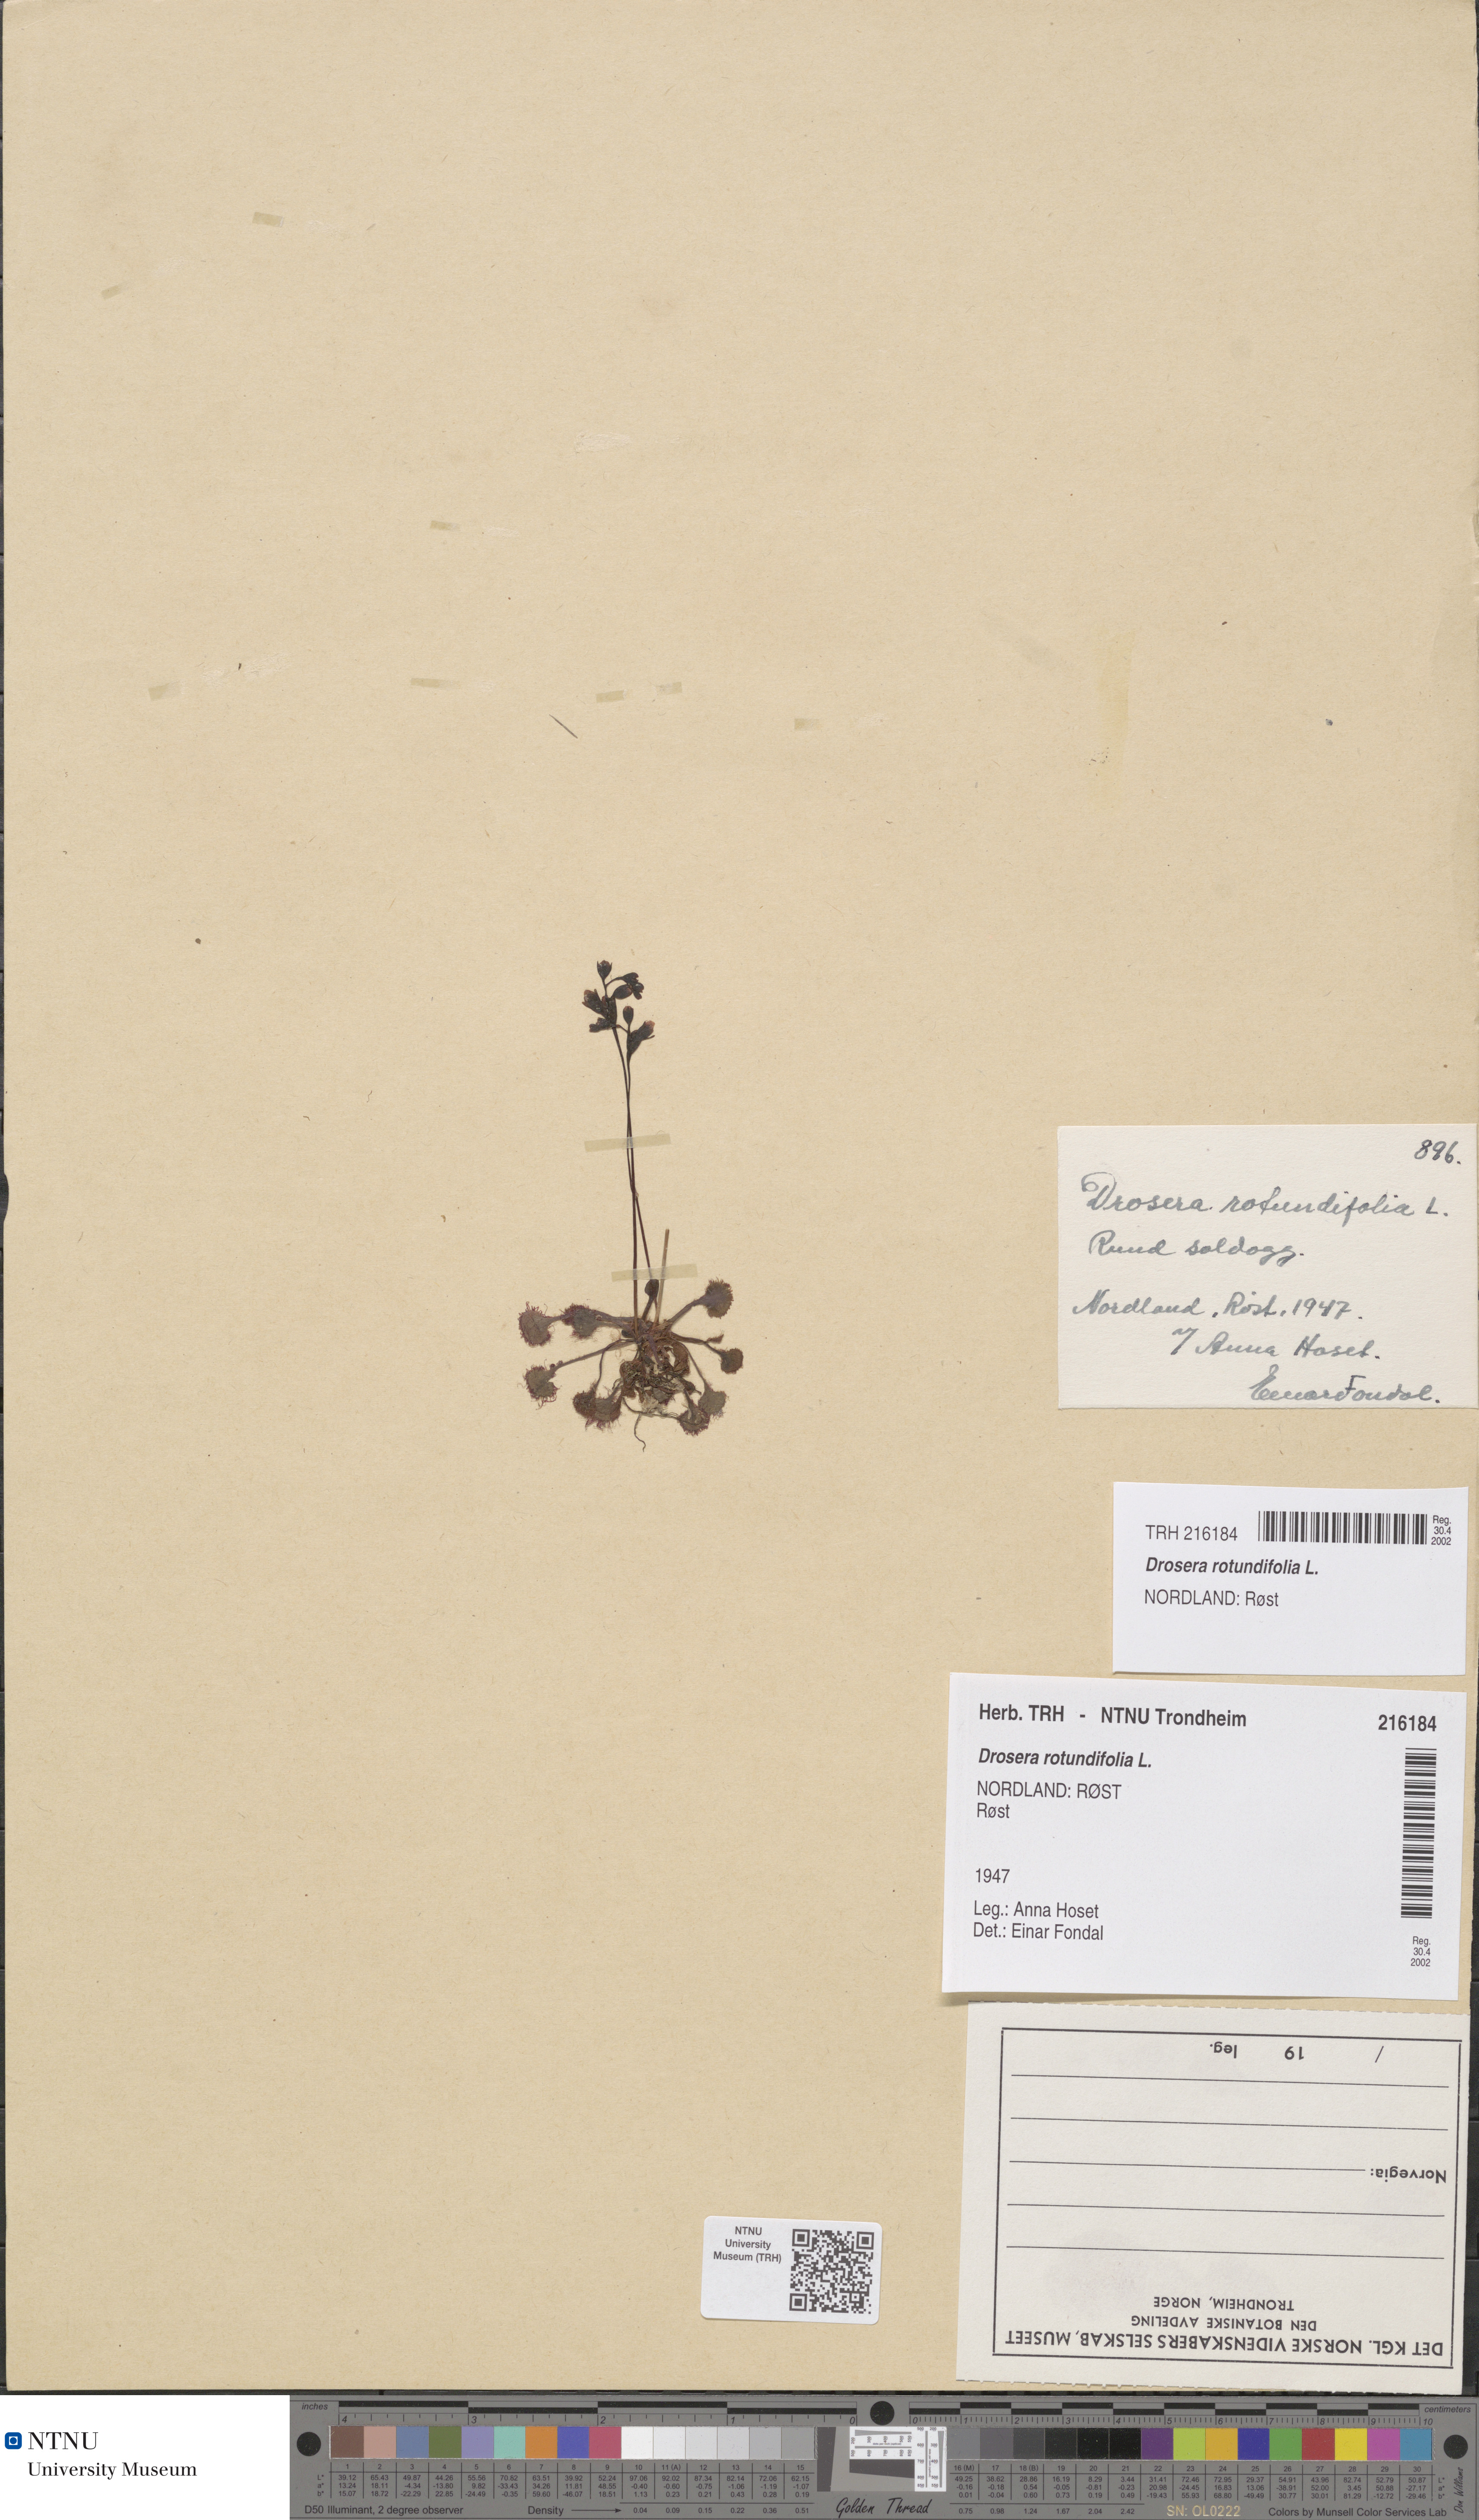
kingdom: Plantae
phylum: Tracheophyta
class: Magnoliopsida
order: Caryophyllales
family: Droseraceae
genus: Drosera
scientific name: Drosera rotundifolia
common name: Round-leaved sundew
